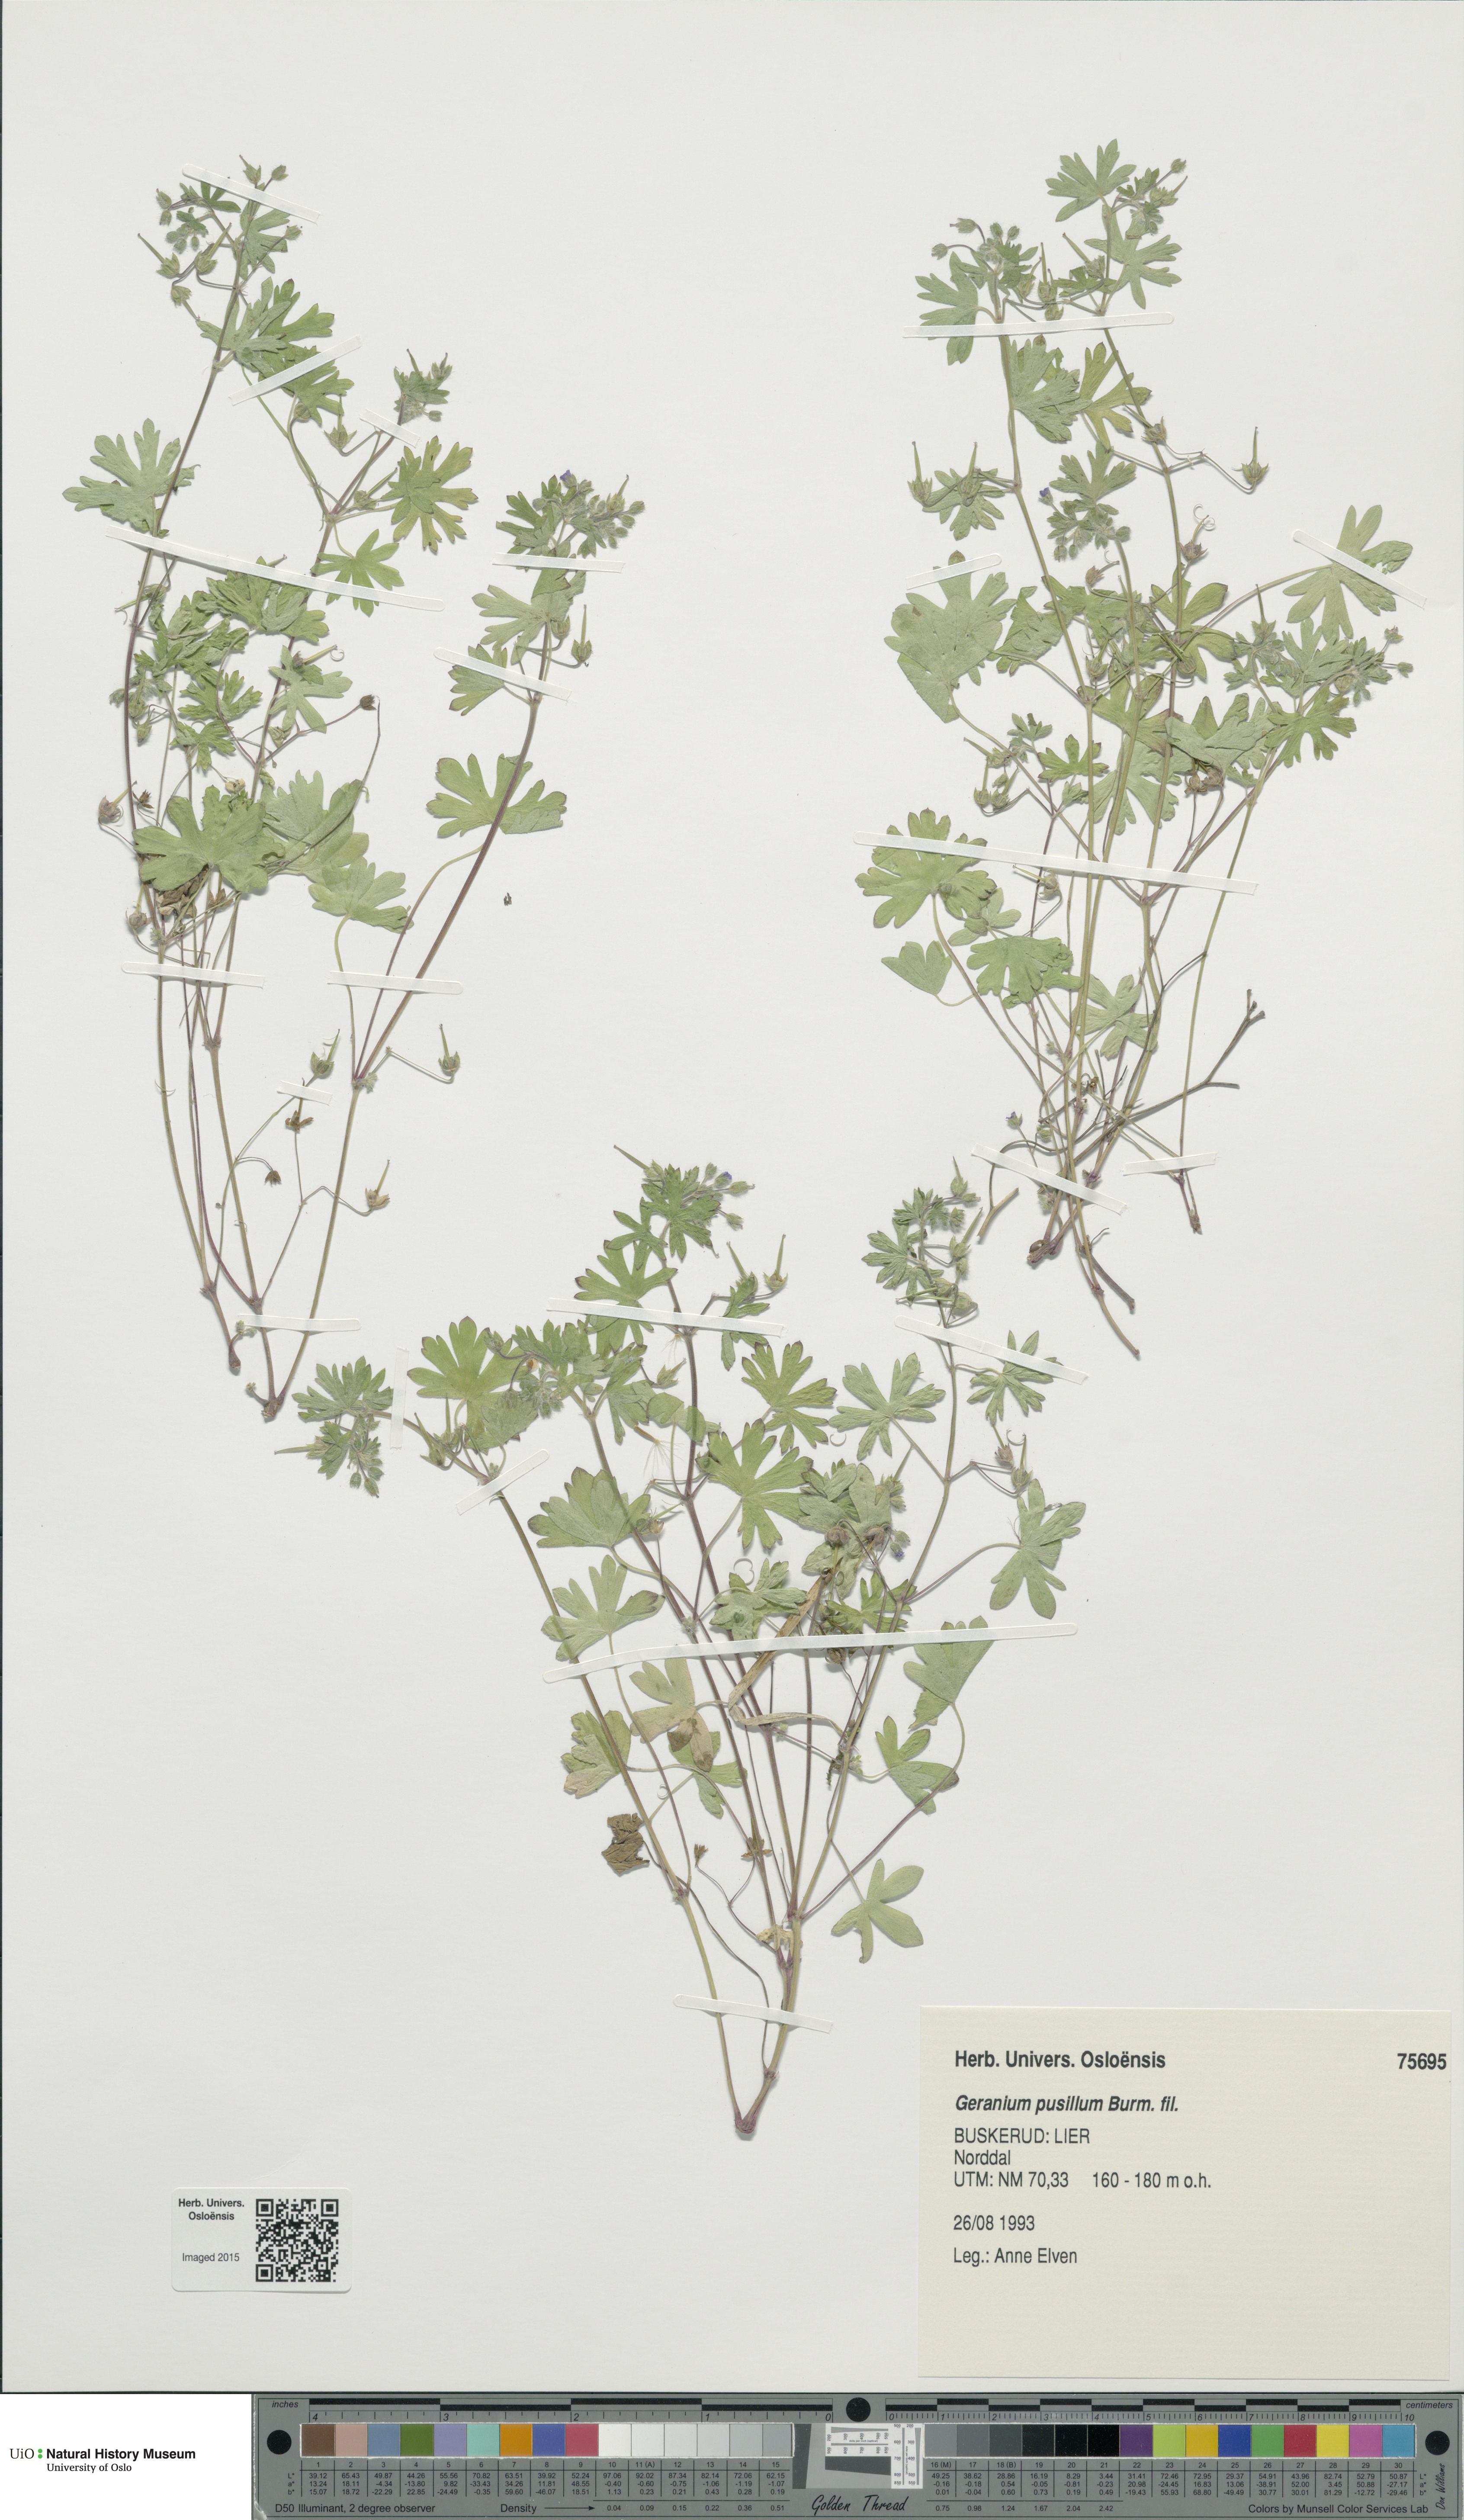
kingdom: Plantae
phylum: Tracheophyta
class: Magnoliopsida
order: Geraniales
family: Geraniaceae
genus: Geranium
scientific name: Geranium pusillum
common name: Small geranium
